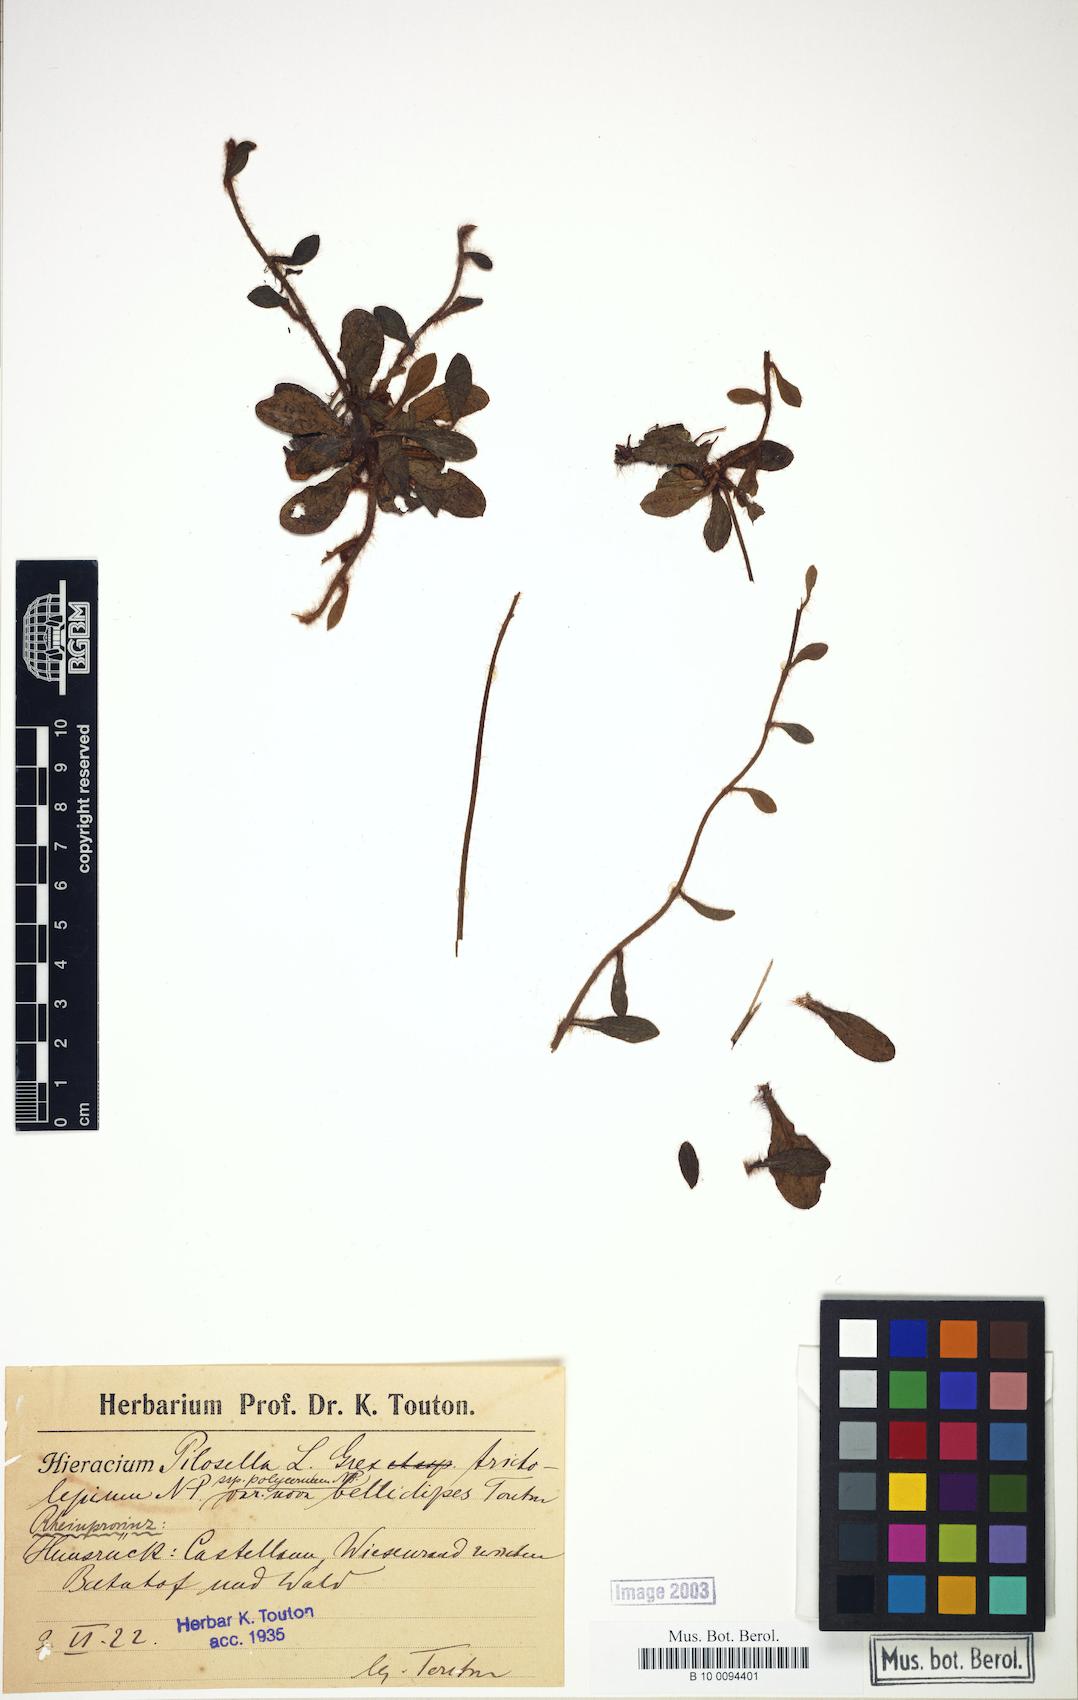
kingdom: Plantae
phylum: Tracheophyta
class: Magnoliopsida
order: Asterales
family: Asteraceae
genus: Pilosella
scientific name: Pilosella officinarum
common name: Mouse-ear hawkweed
